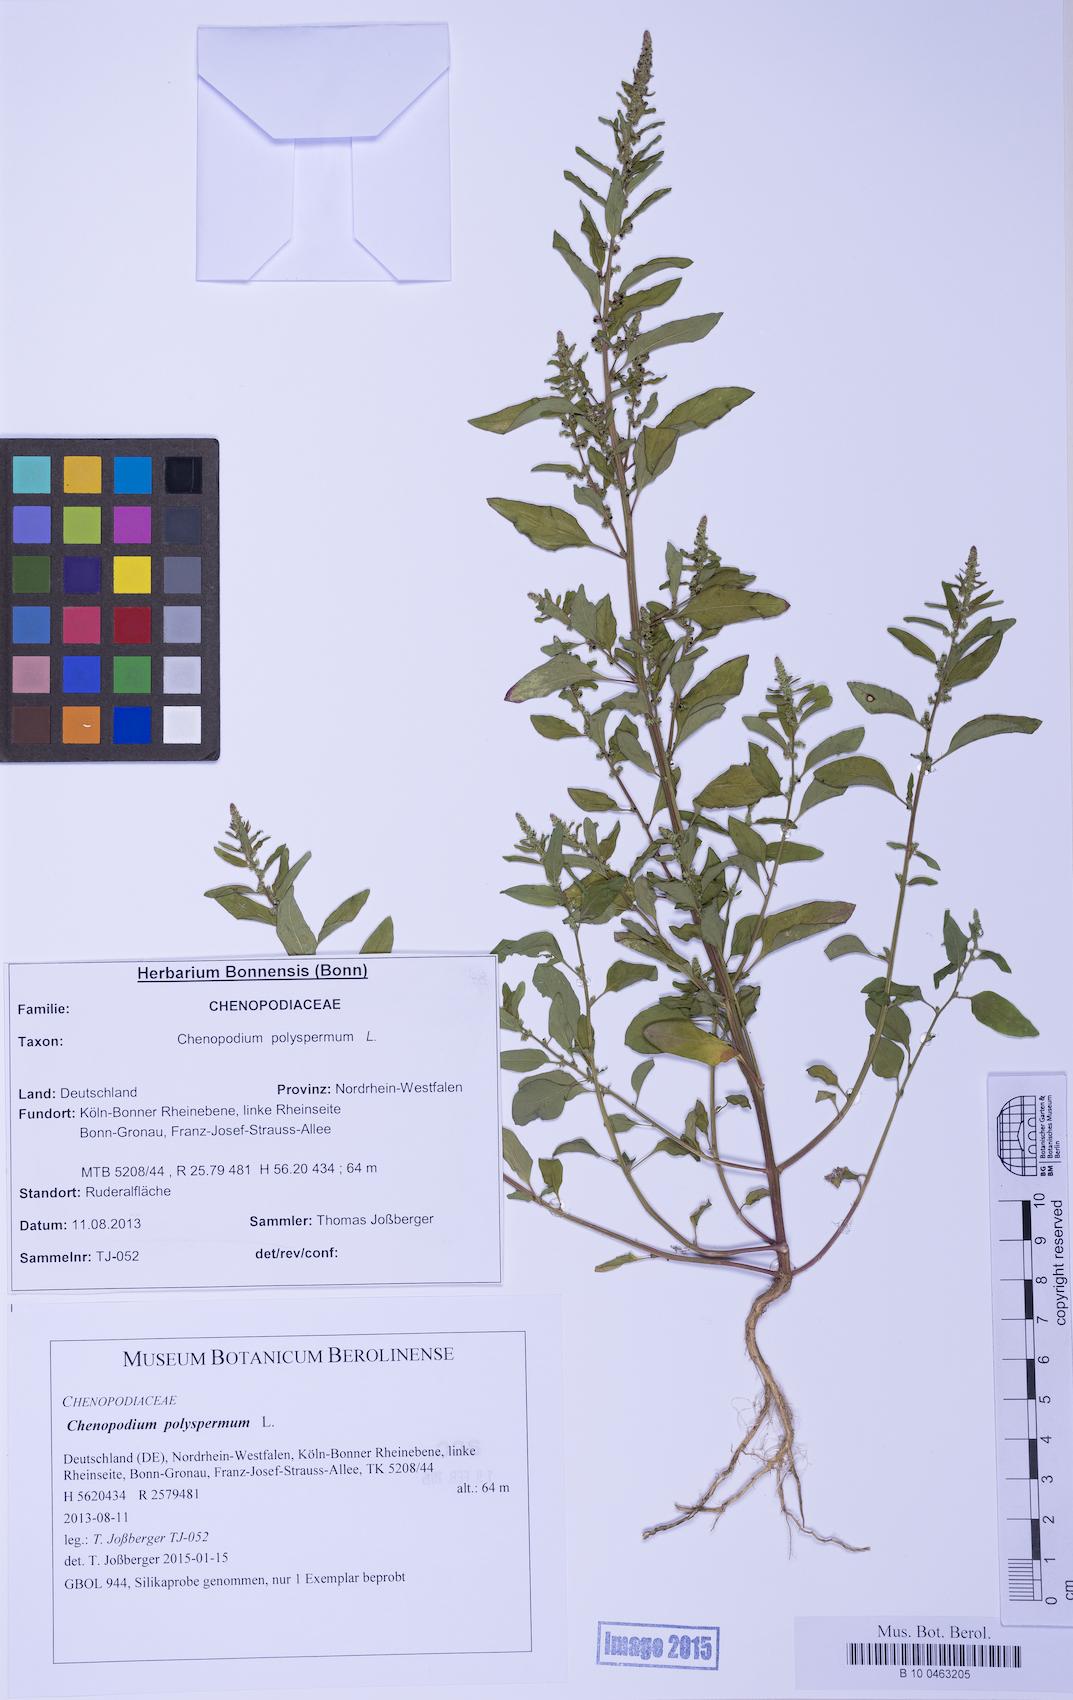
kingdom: Plantae
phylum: Tracheophyta
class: Magnoliopsida
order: Caryophyllales
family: Amaranthaceae
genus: Lipandra
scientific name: Lipandra polysperma
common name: Many-seed goosefoot
